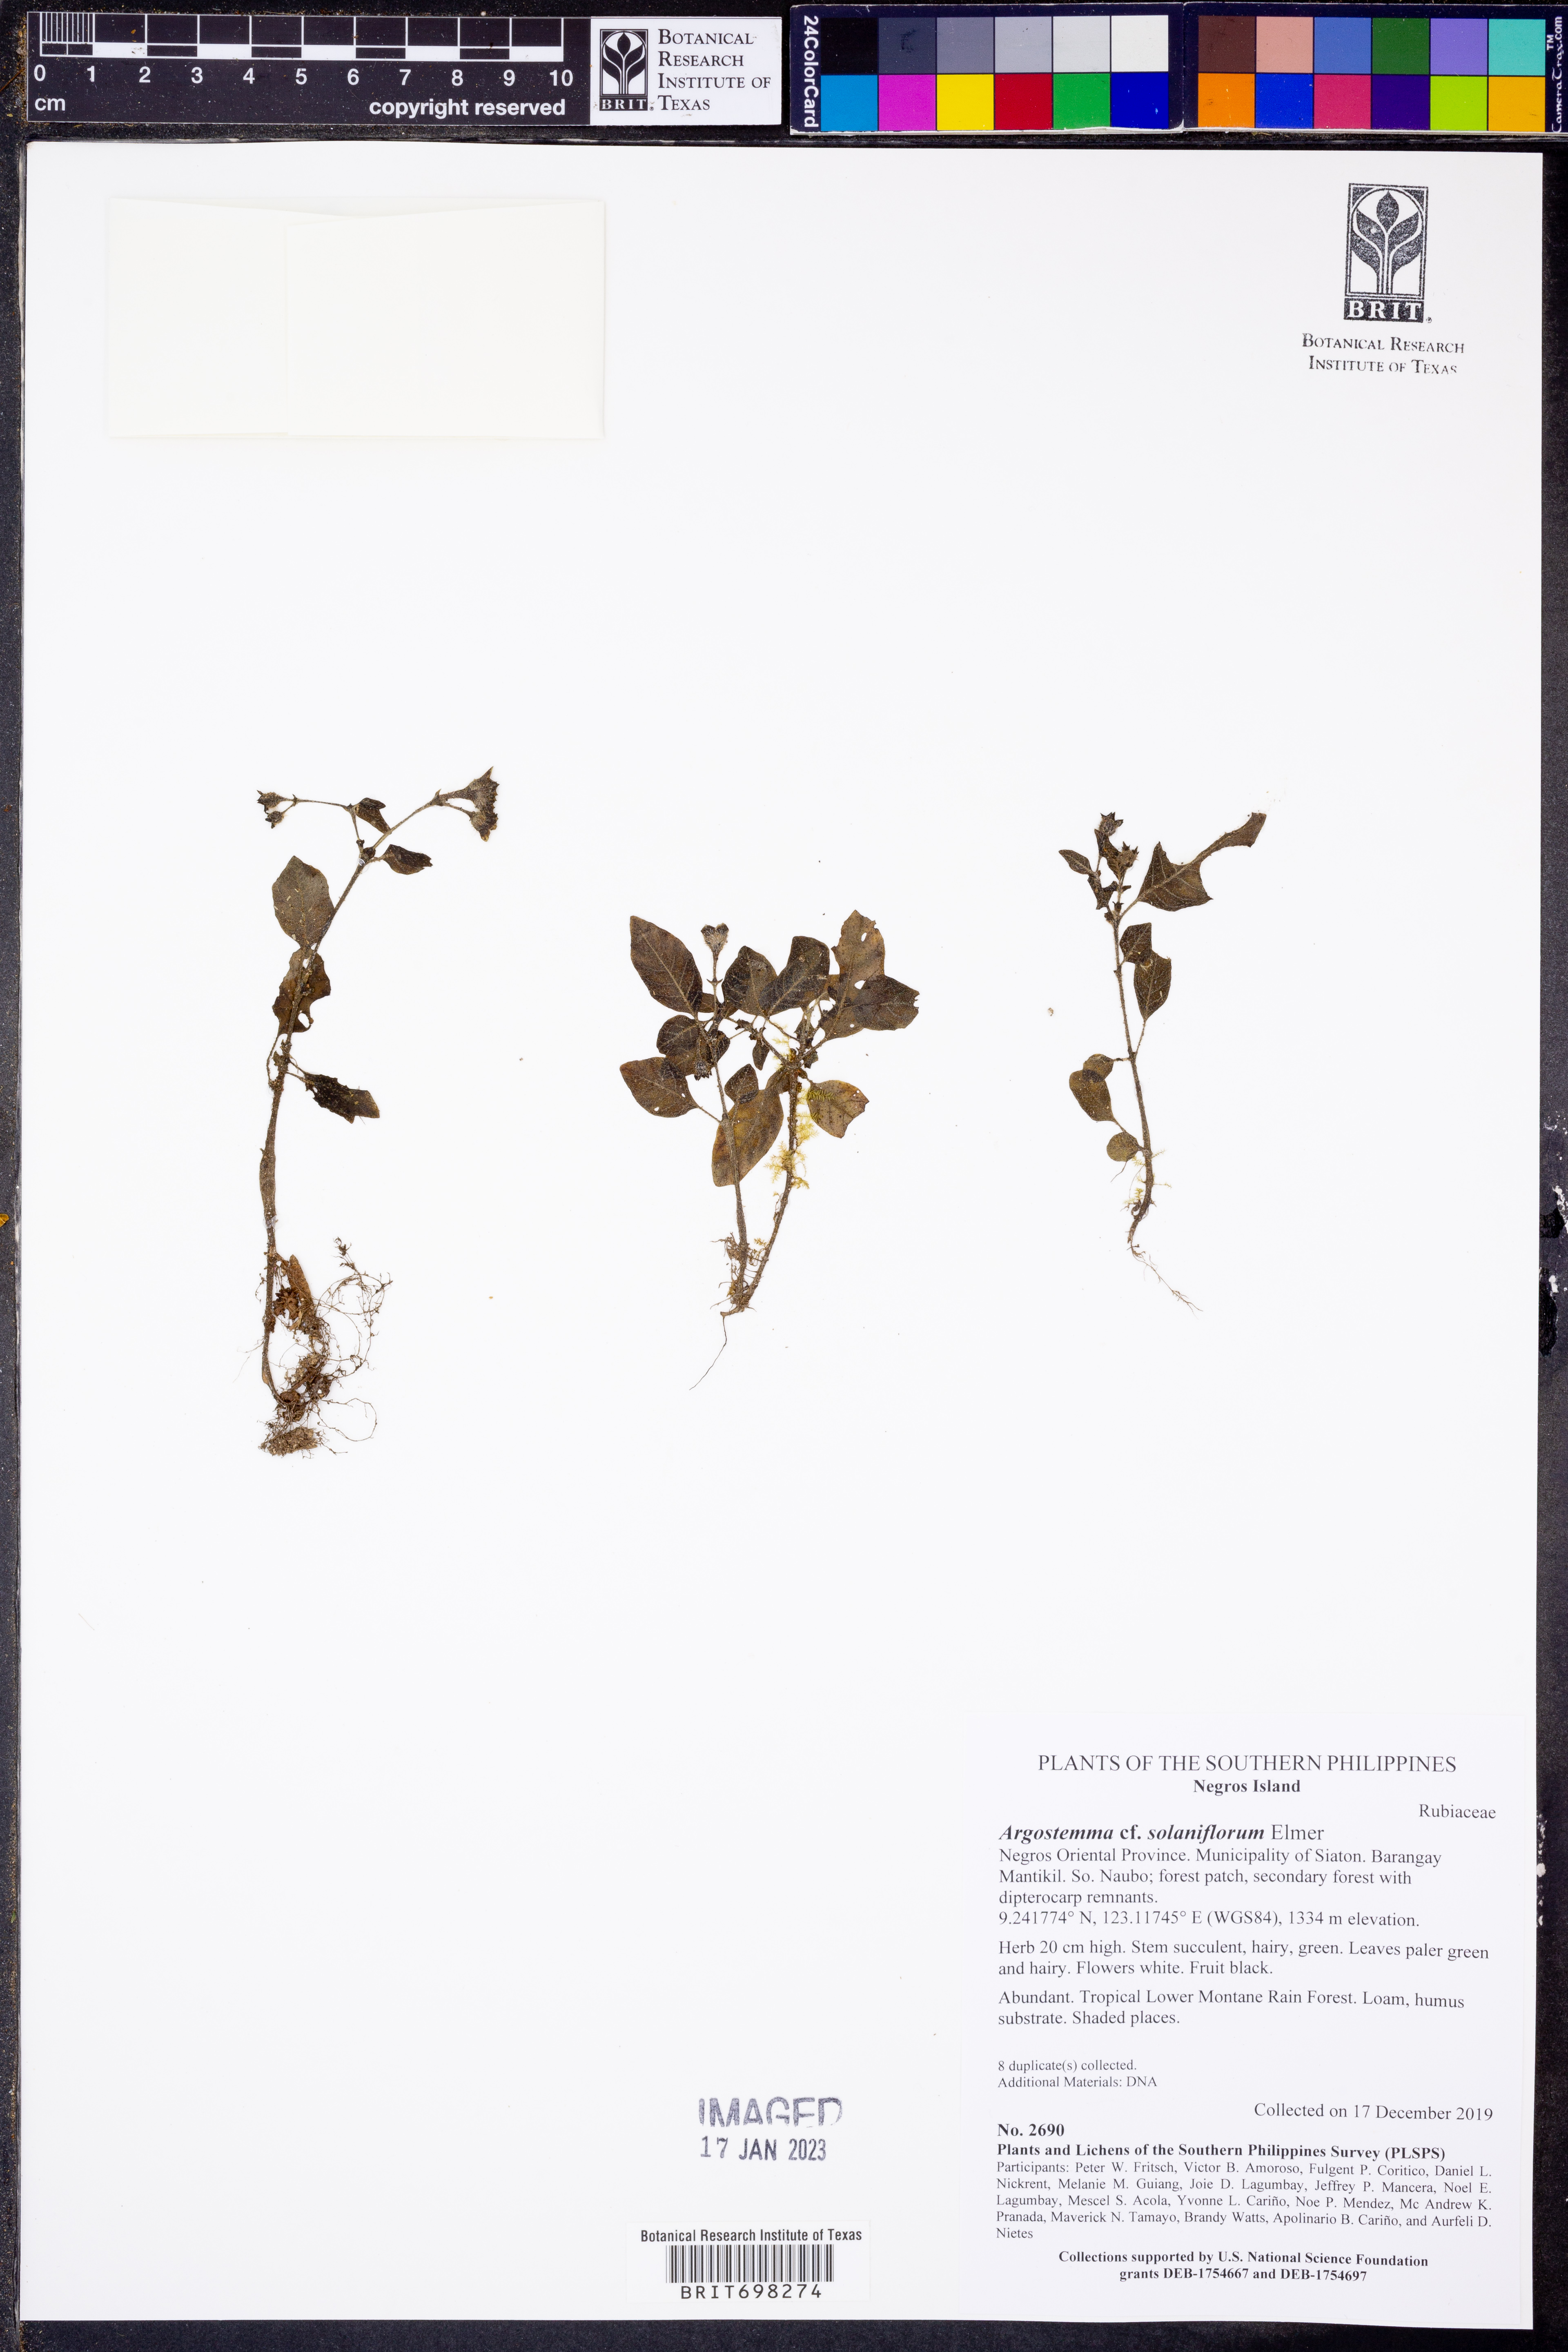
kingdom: Plantae
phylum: Tracheophyta
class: Magnoliopsida
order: Gentianales
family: Rubiaceae
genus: Argostemma
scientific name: Argostemma solaniflorum
